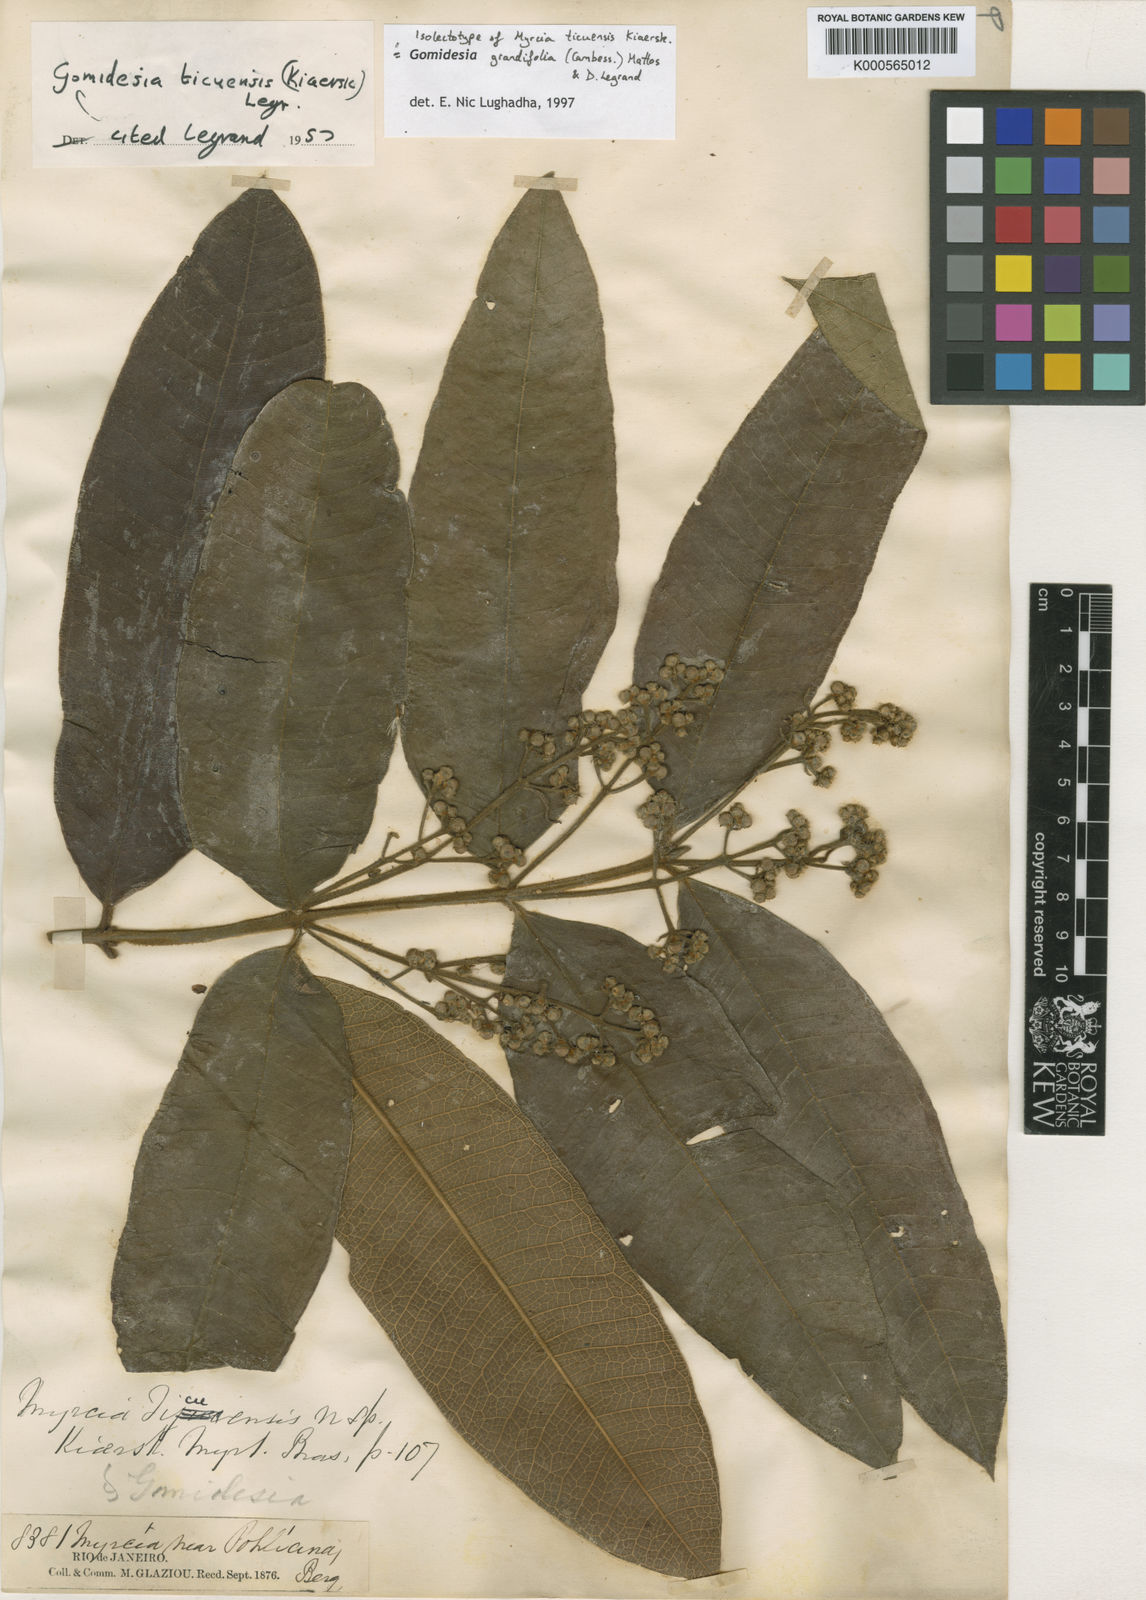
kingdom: Plantae
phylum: Tracheophyta
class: Magnoliopsida
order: Myrtales
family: Myrtaceae
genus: Myrcia
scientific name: Myrcia grandifolia
